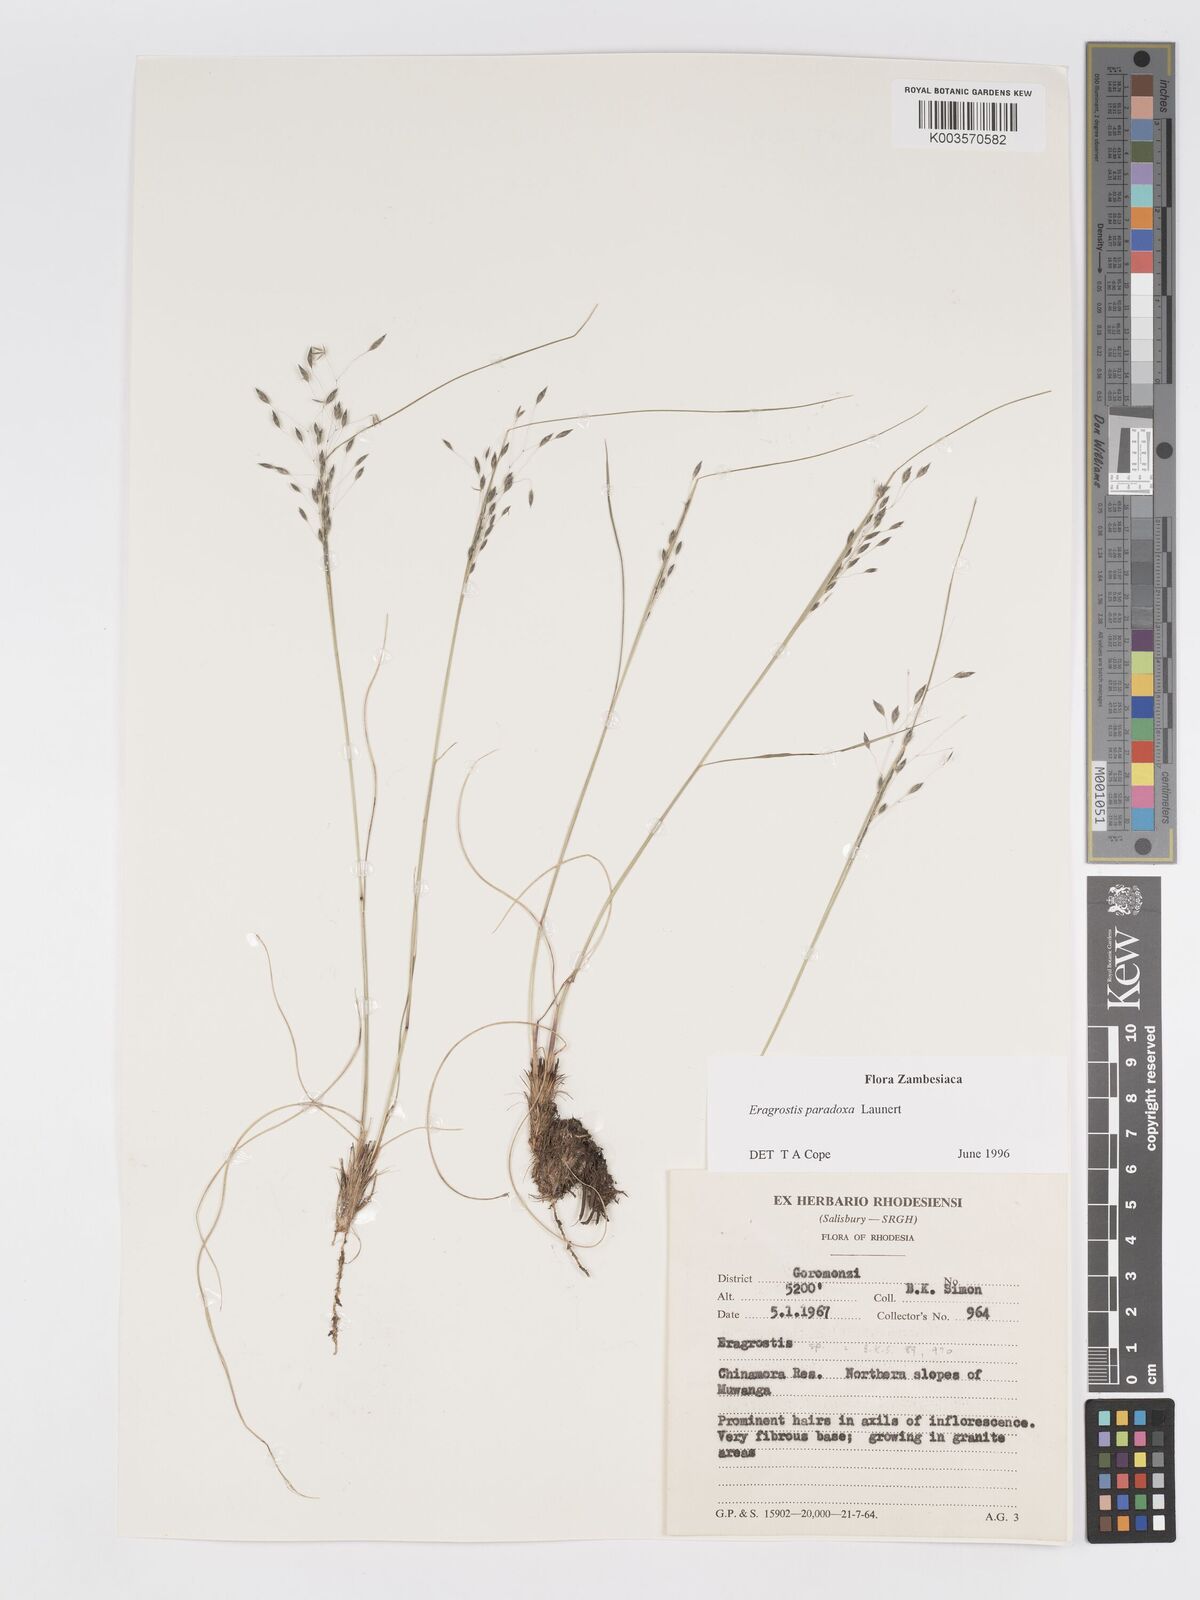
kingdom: Plantae
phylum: Tracheophyta
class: Liliopsida
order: Poales
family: Poaceae
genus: Eragrostis
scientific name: Eragrostis paradoxa
